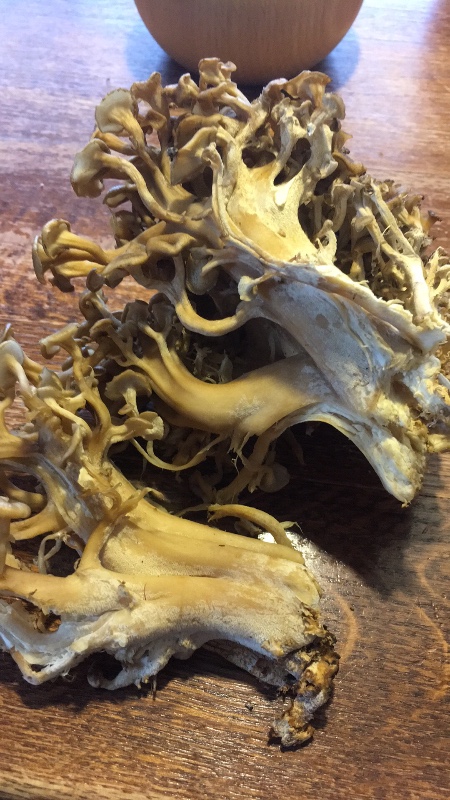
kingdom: Fungi
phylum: Basidiomycota
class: Agaricomycetes
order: Polyporales
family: Polyporaceae
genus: Polyporus
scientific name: Polyporus umbellatus
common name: skærmformet stilkporesvamp
